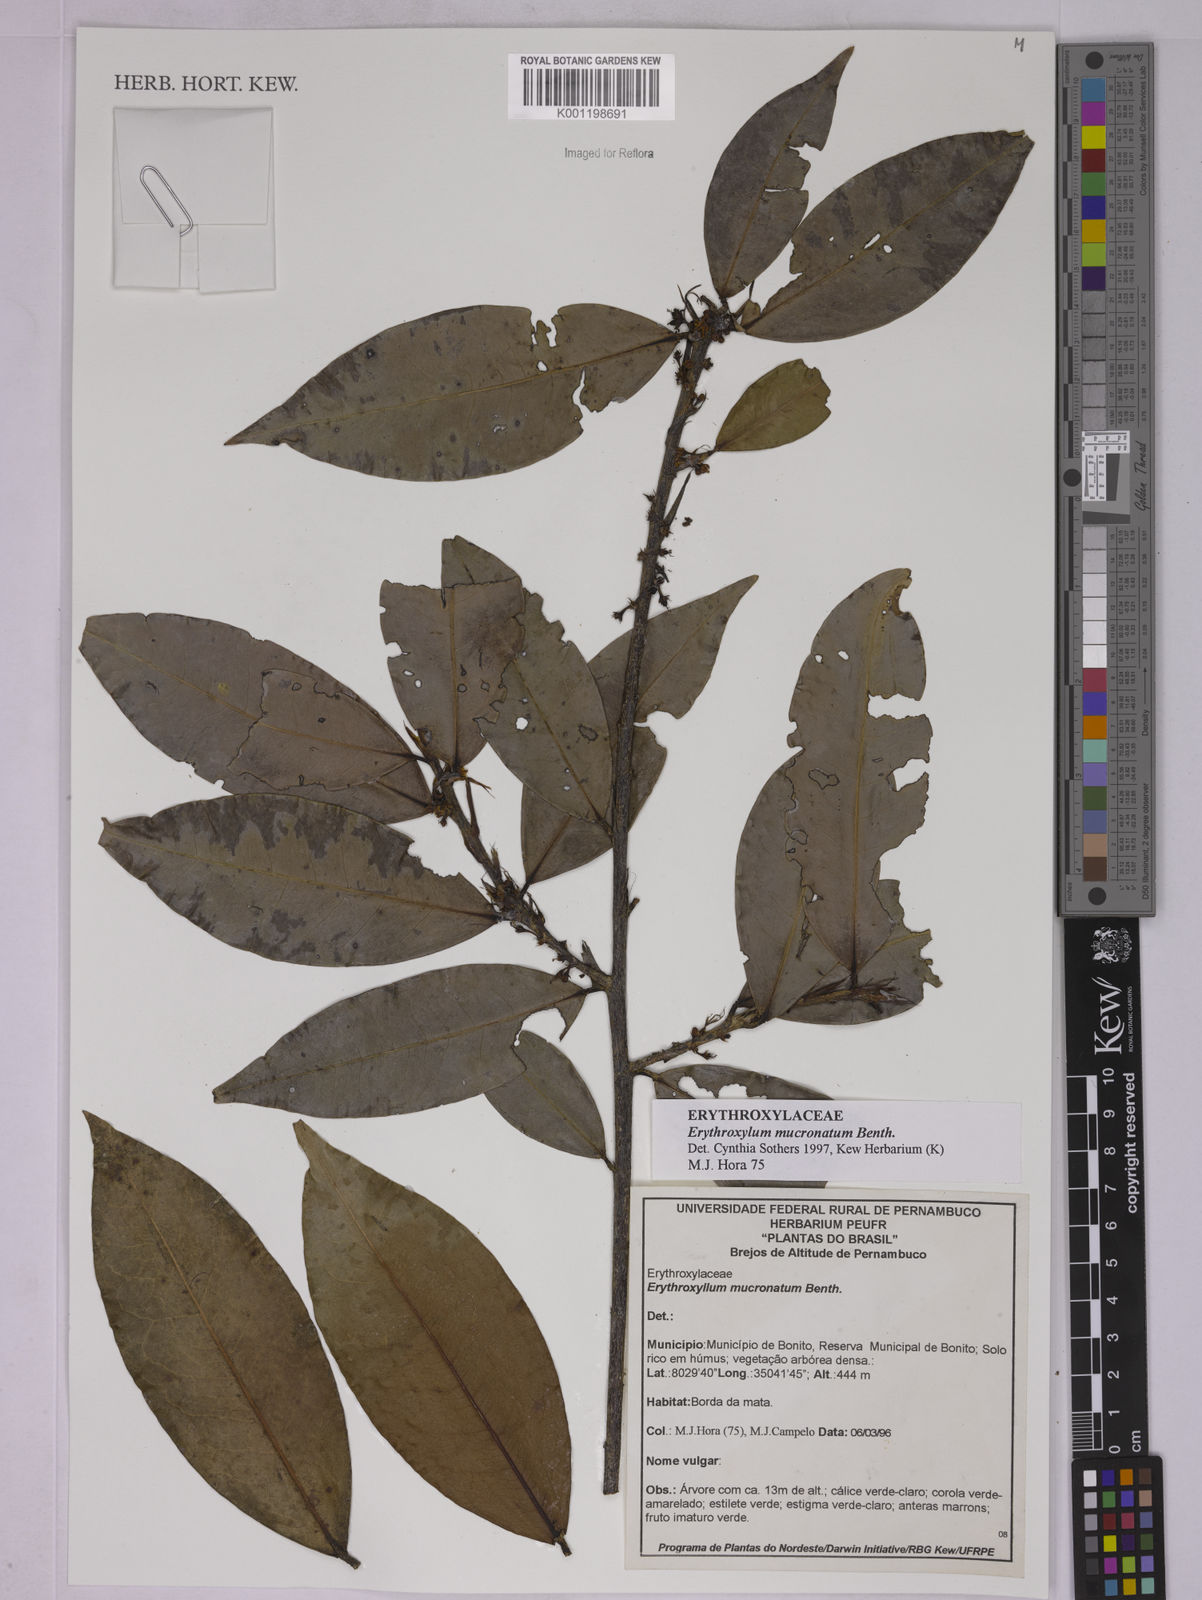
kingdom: Plantae
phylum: Tracheophyta
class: Magnoliopsida
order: Malpighiales
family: Erythroxylaceae
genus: Erythroxylum
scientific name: Erythroxylum mucronatum
